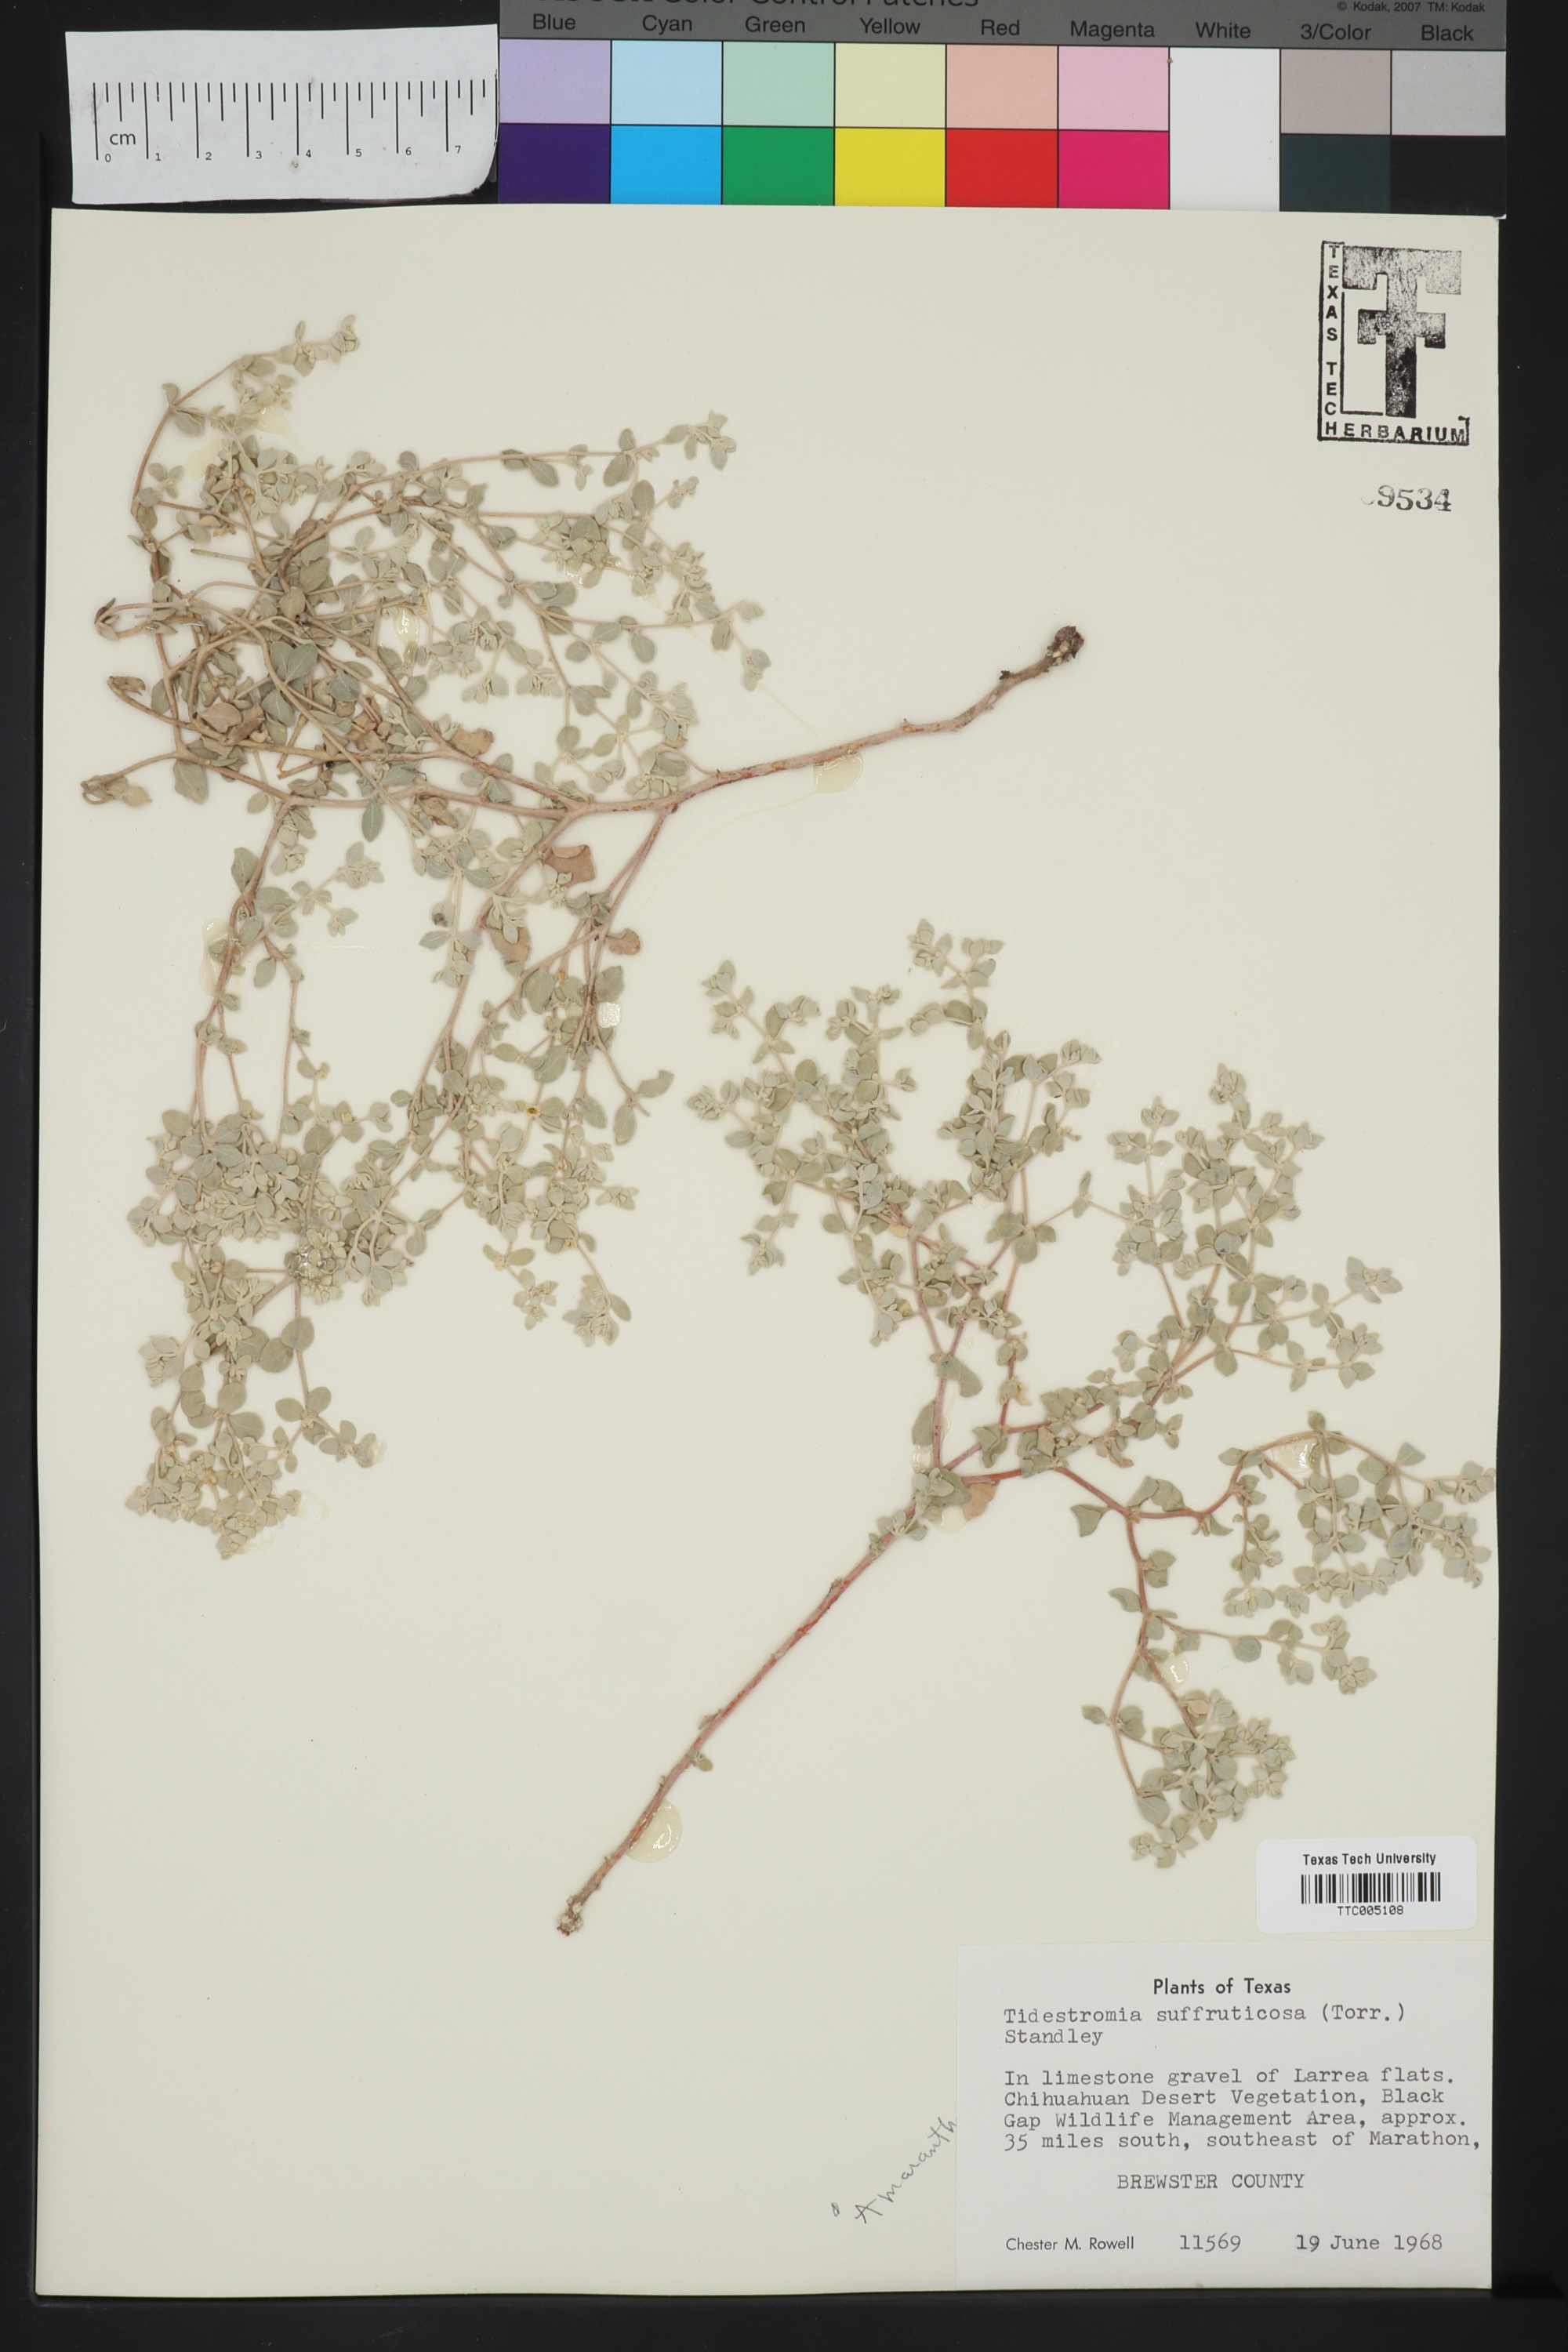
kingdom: Plantae
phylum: Tracheophyta
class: Magnoliopsida
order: Caryophyllales
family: Amaranthaceae
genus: Tidestromia
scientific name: Tidestromia suffruticosa
